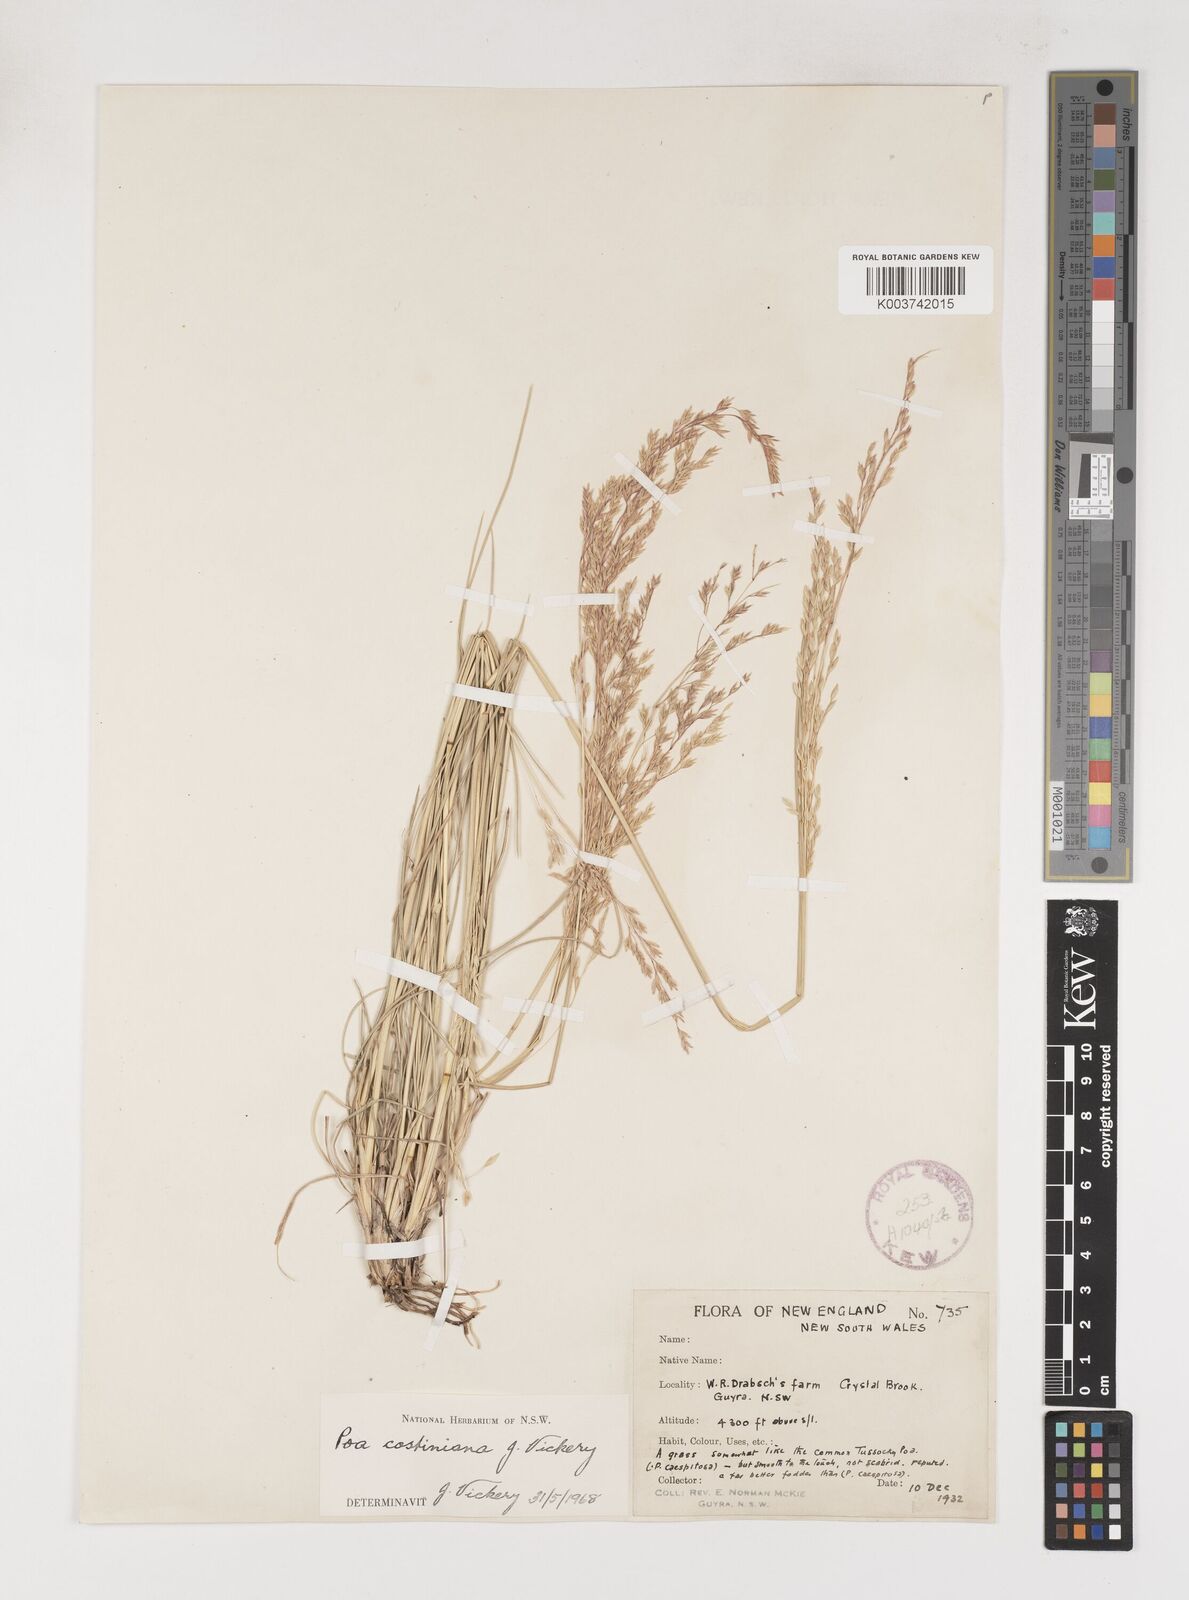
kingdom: Plantae
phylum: Tracheophyta
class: Liliopsida
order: Poales
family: Poaceae
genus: Poa
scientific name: Poa costiniana
